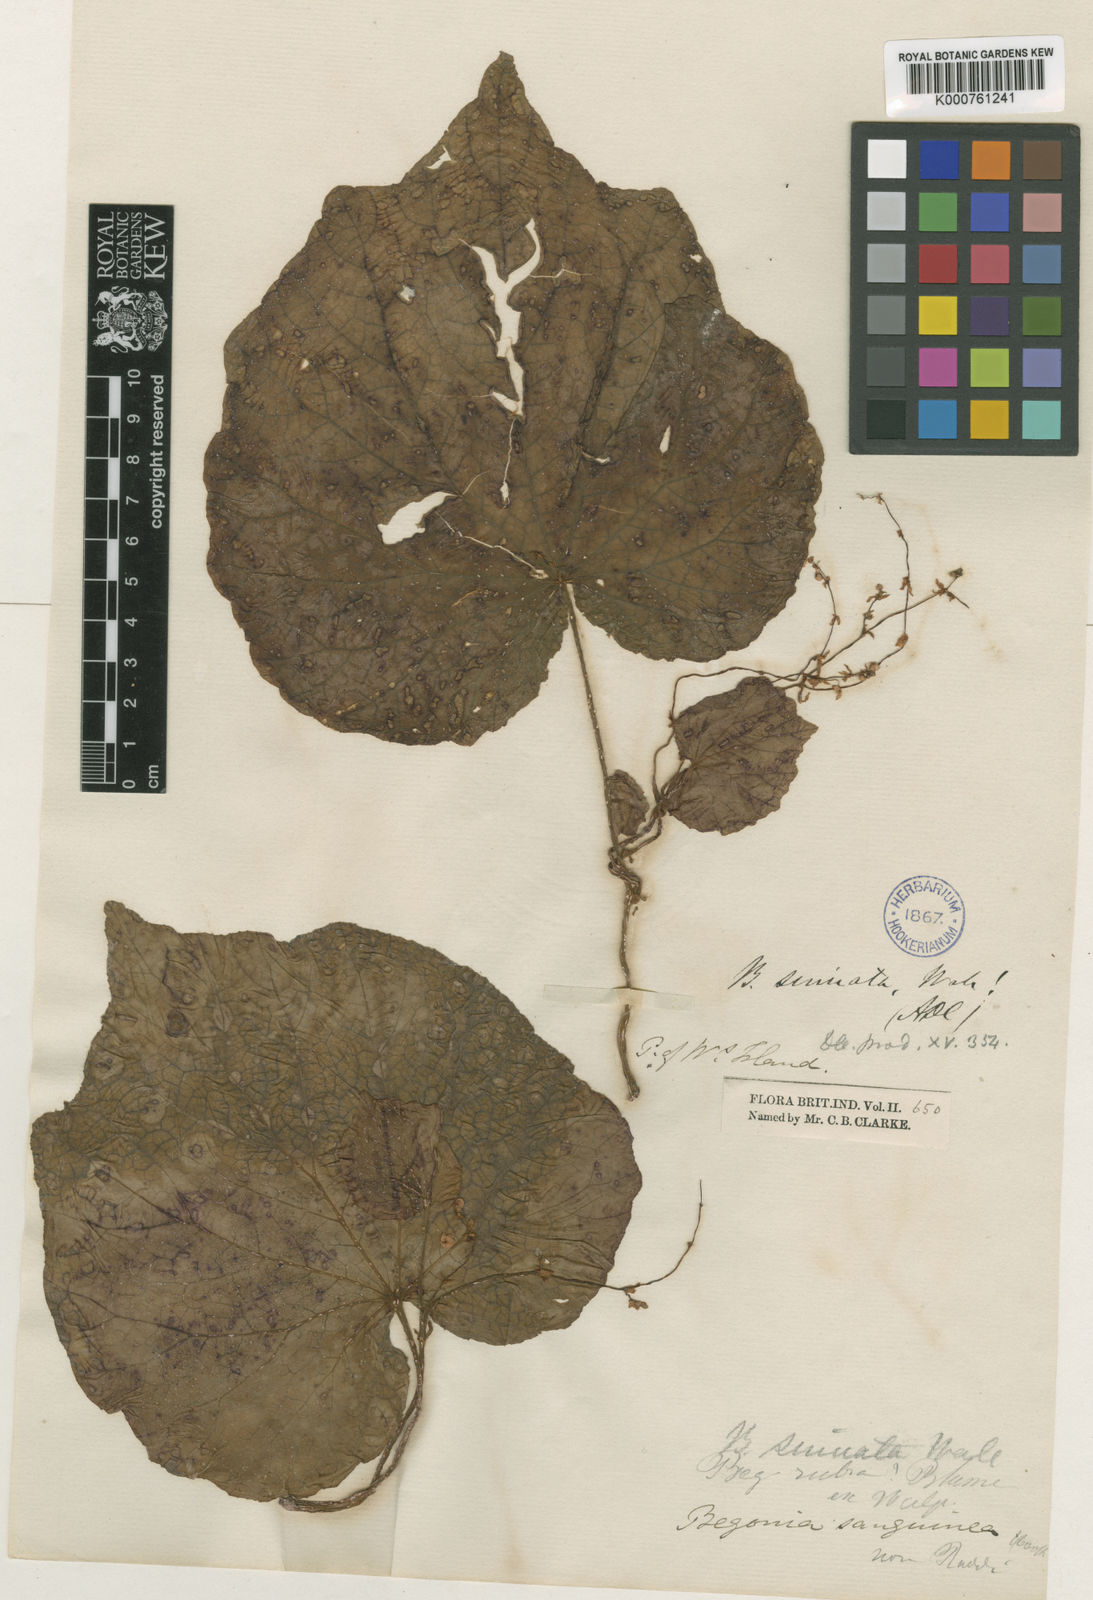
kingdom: Plantae
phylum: Tracheophyta
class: Magnoliopsida
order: Cucurbitales
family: Begoniaceae
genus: Begonia
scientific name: Begonia
